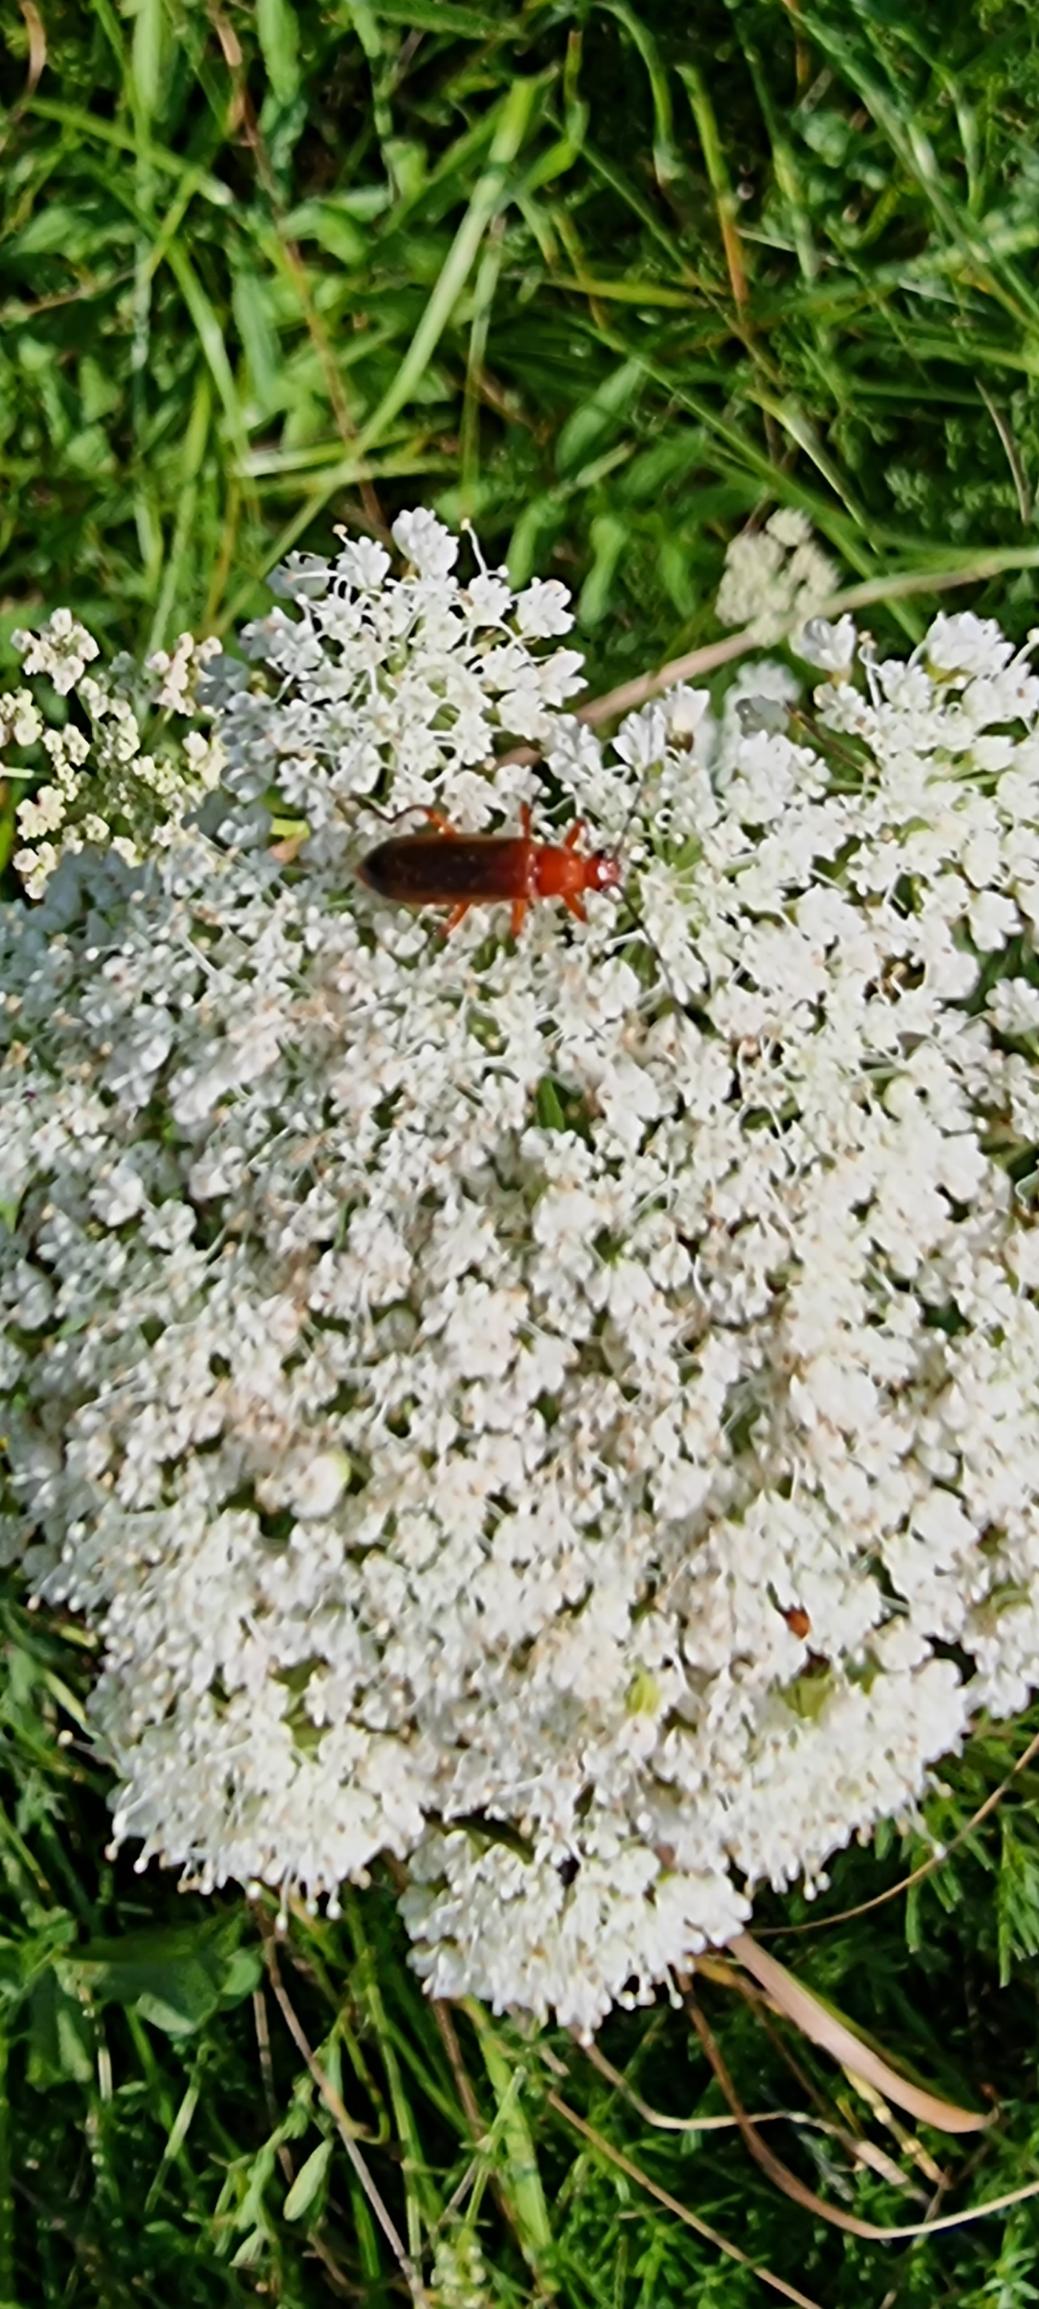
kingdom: Animalia
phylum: Arthropoda
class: Insecta
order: Coleoptera
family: Cantharidae
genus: Rhagonycha
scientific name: Rhagonycha fulva
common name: Præstebille
